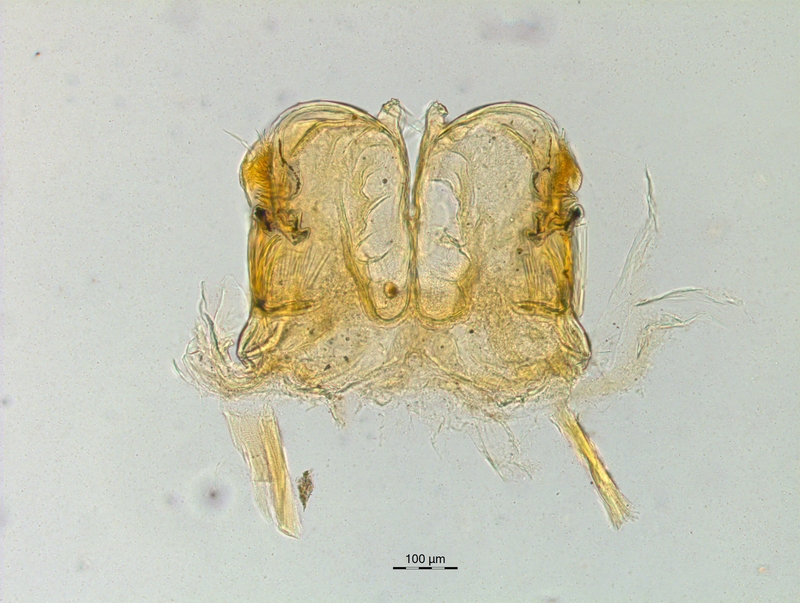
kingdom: Animalia
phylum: Arthropoda
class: Diplopoda
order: Chordeumatida
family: Craspedosomatidae
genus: Craspedosoma
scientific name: Craspedosoma taurinorum
